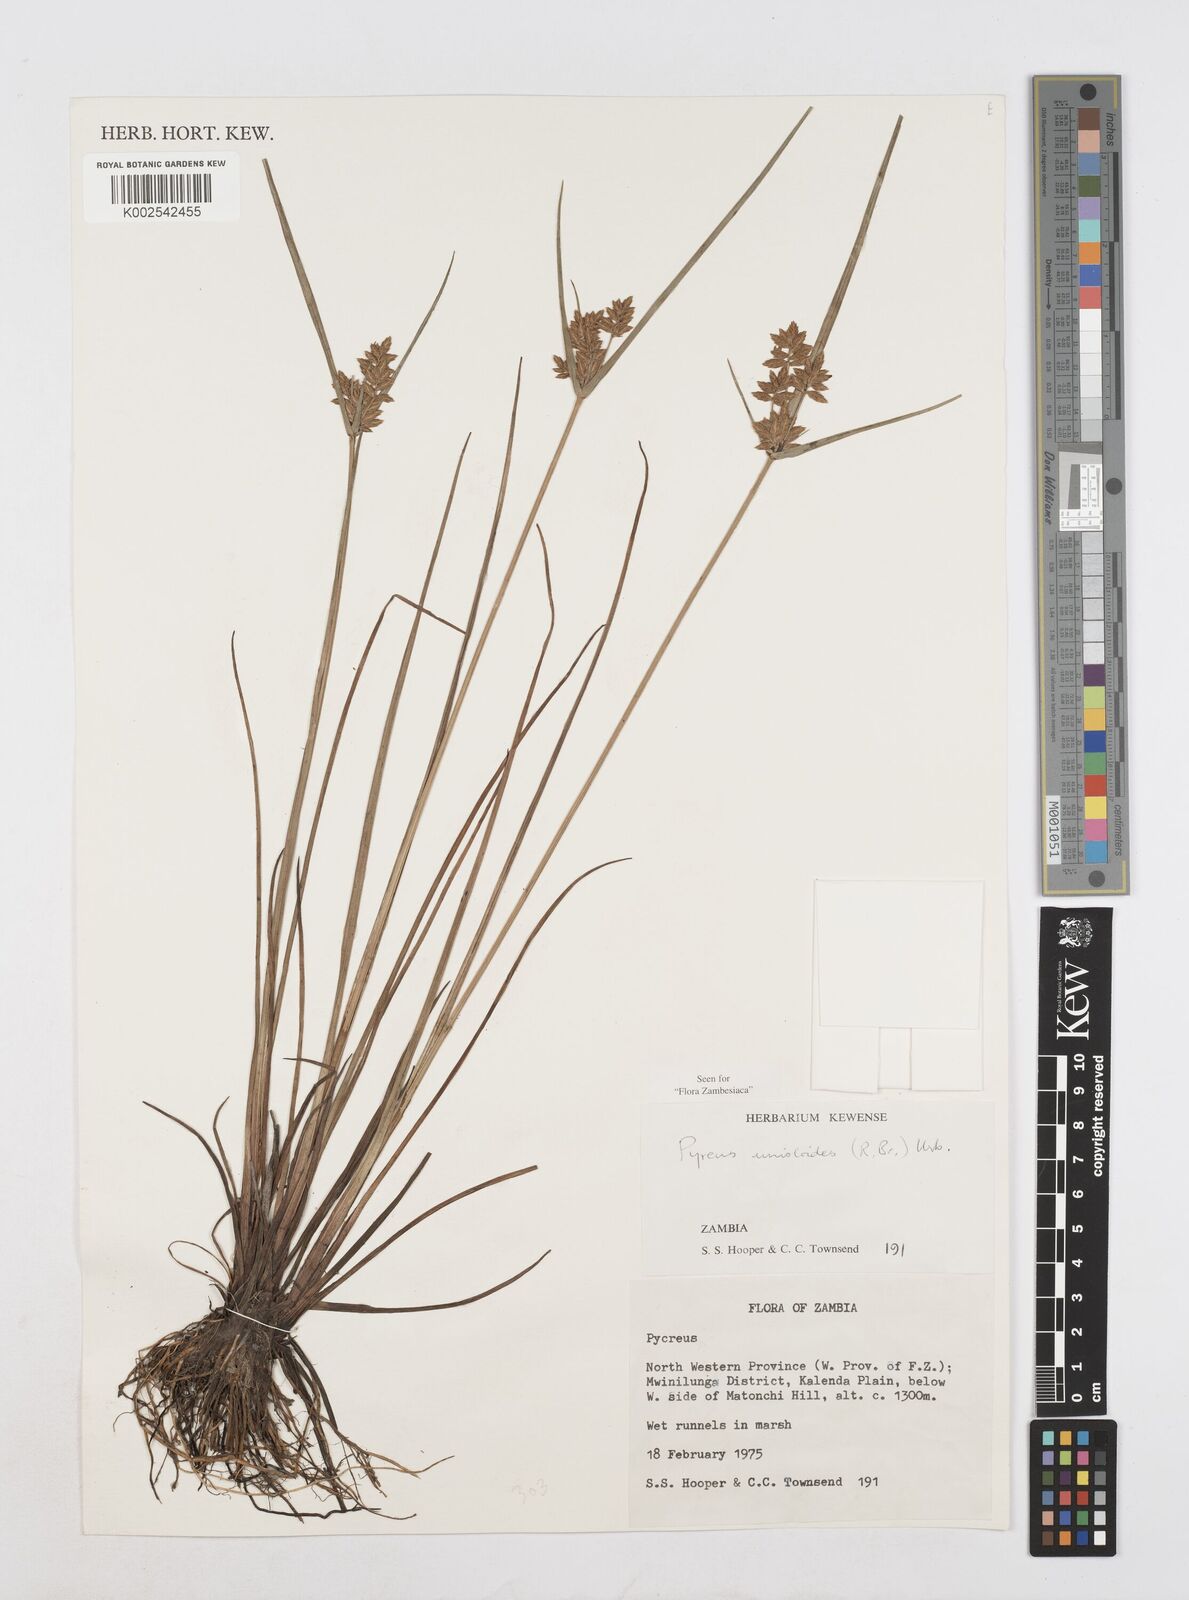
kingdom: Plantae
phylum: Tracheophyta
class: Liliopsida
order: Poales
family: Cyperaceae
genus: Cyperus
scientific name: Cyperus unioloides
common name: Uniola flatsedge
